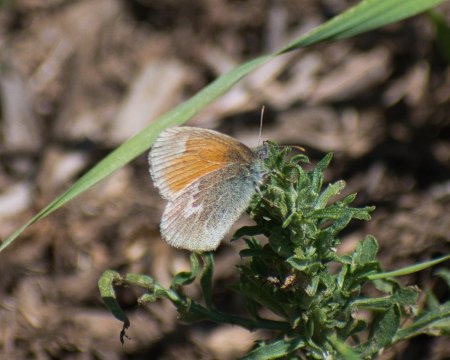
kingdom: Animalia
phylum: Arthropoda
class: Insecta
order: Lepidoptera
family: Nymphalidae
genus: Coenonympha
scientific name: Coenonympha tullia
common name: Large Heath
